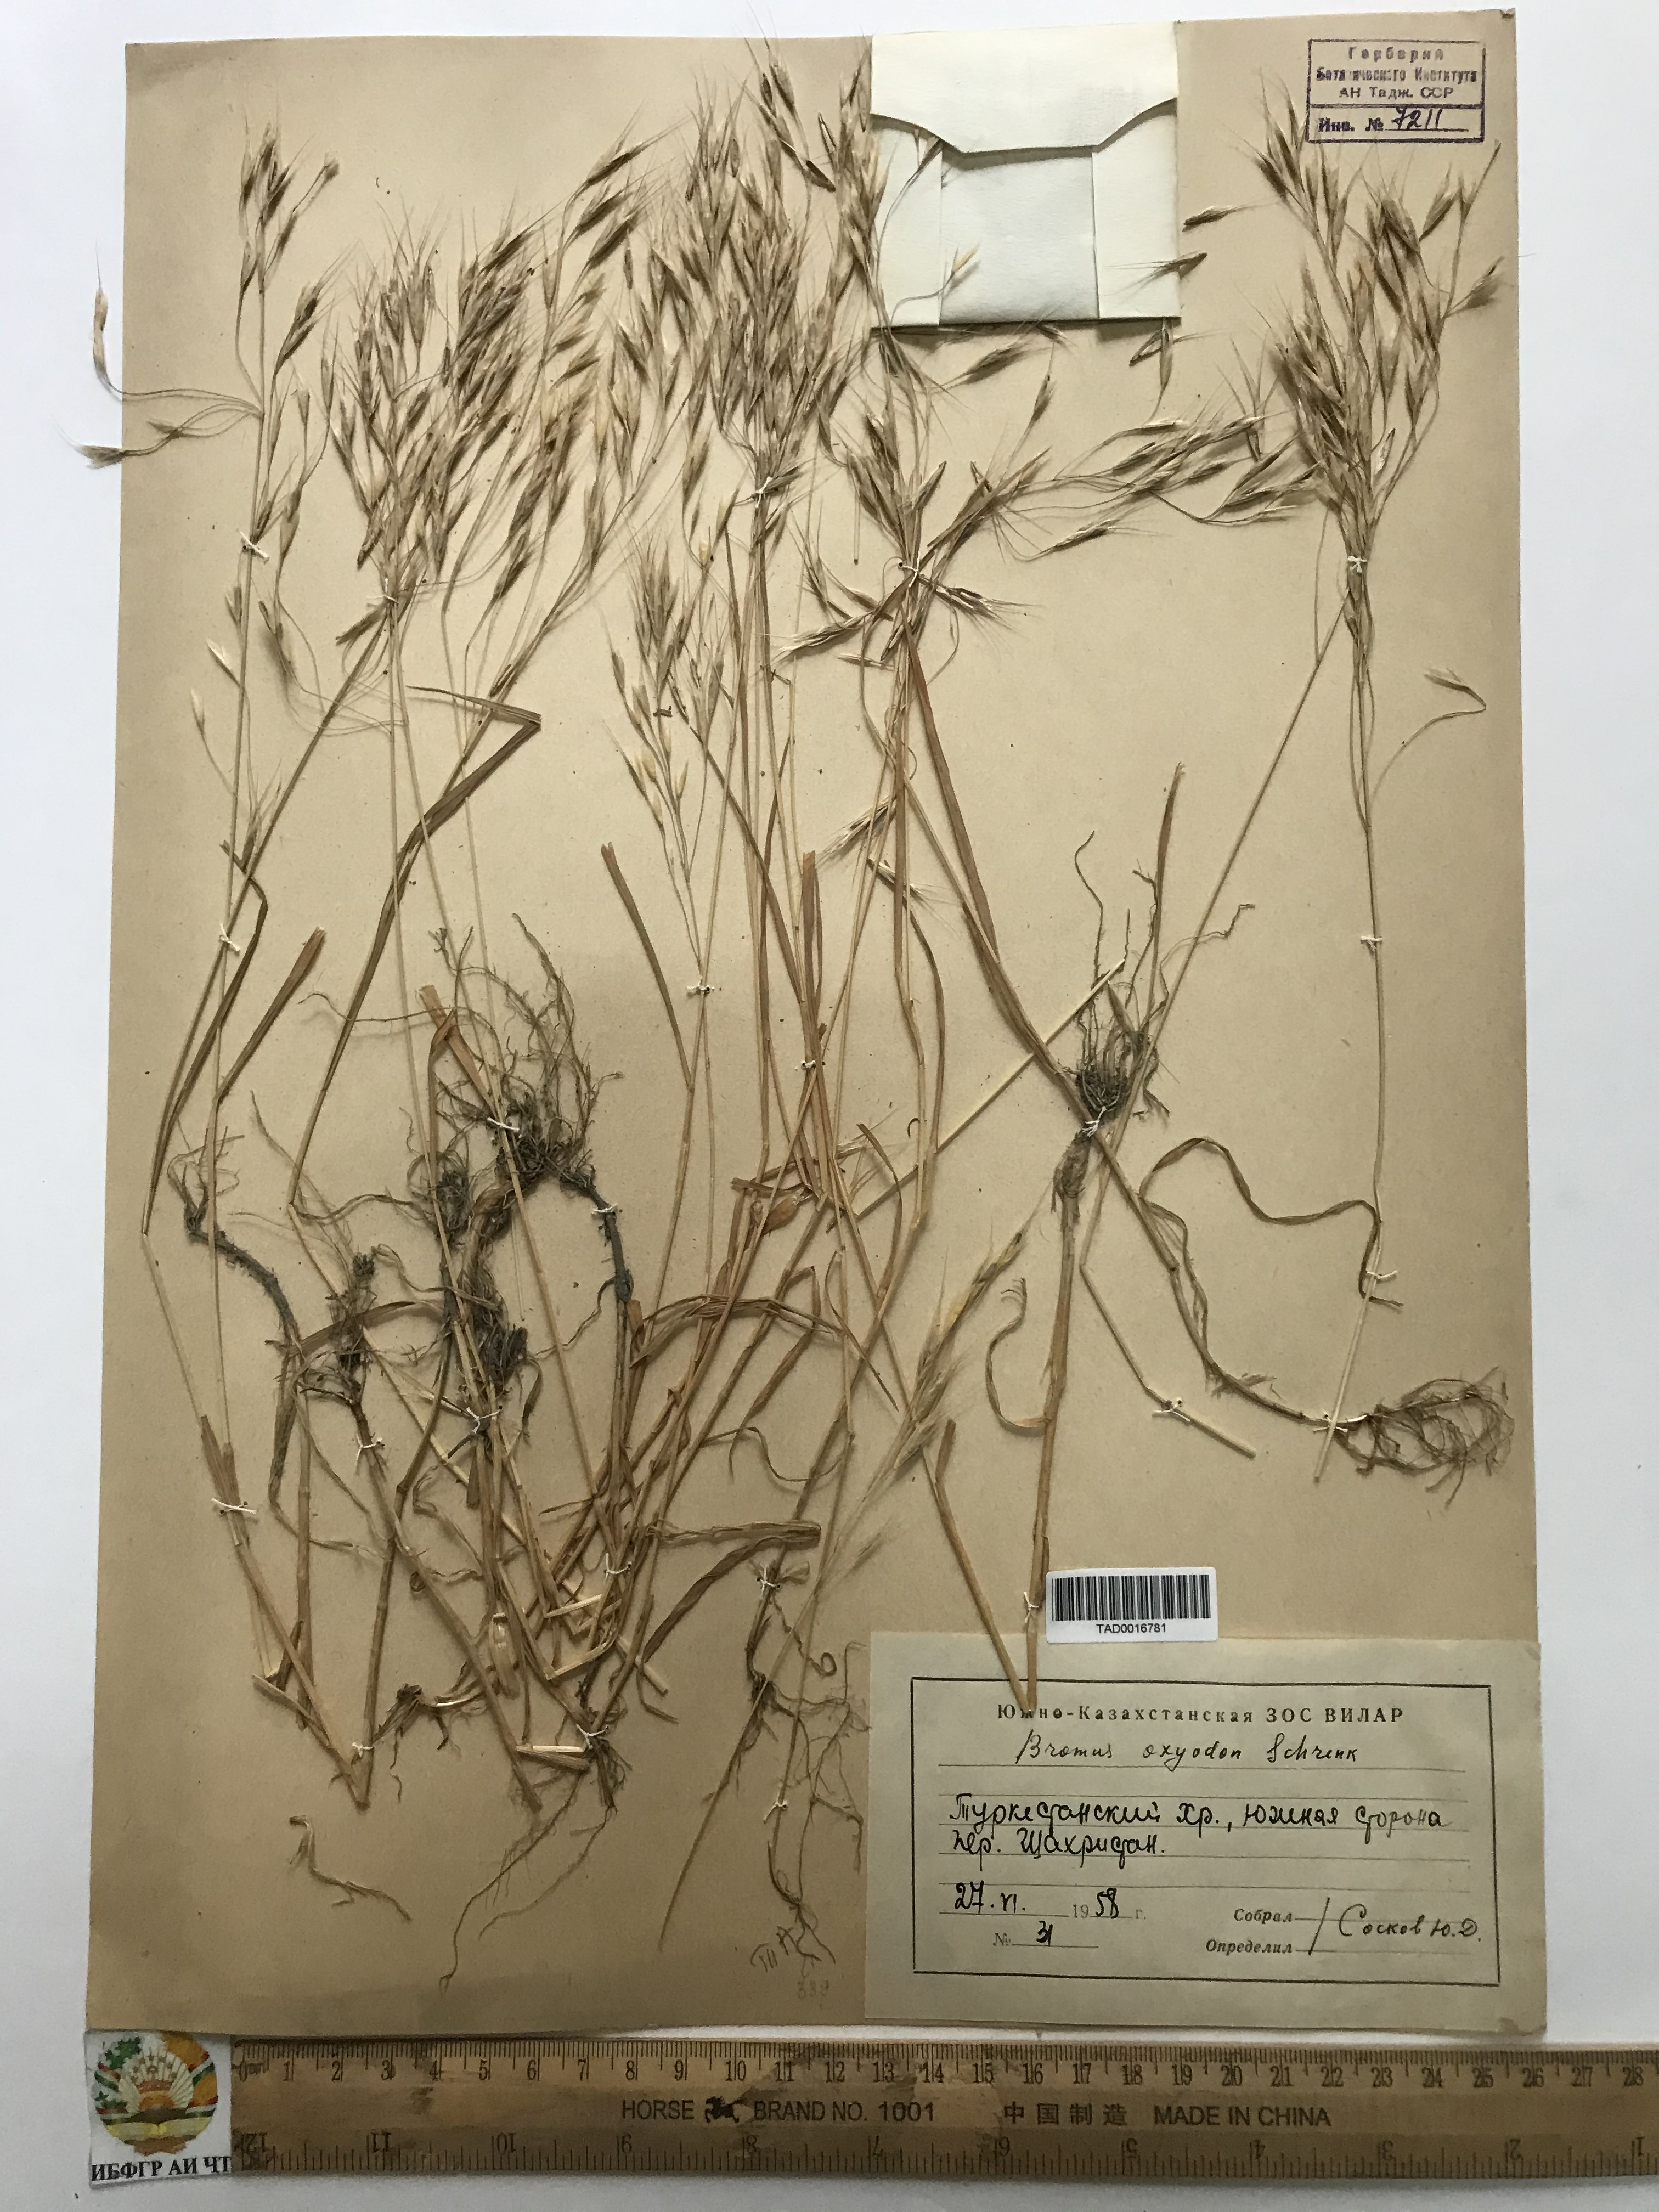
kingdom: Plantae
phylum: Tracheophyta
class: Liliopsida
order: Poales
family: Poaceae
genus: Bromus
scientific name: Bromus oxyodon
